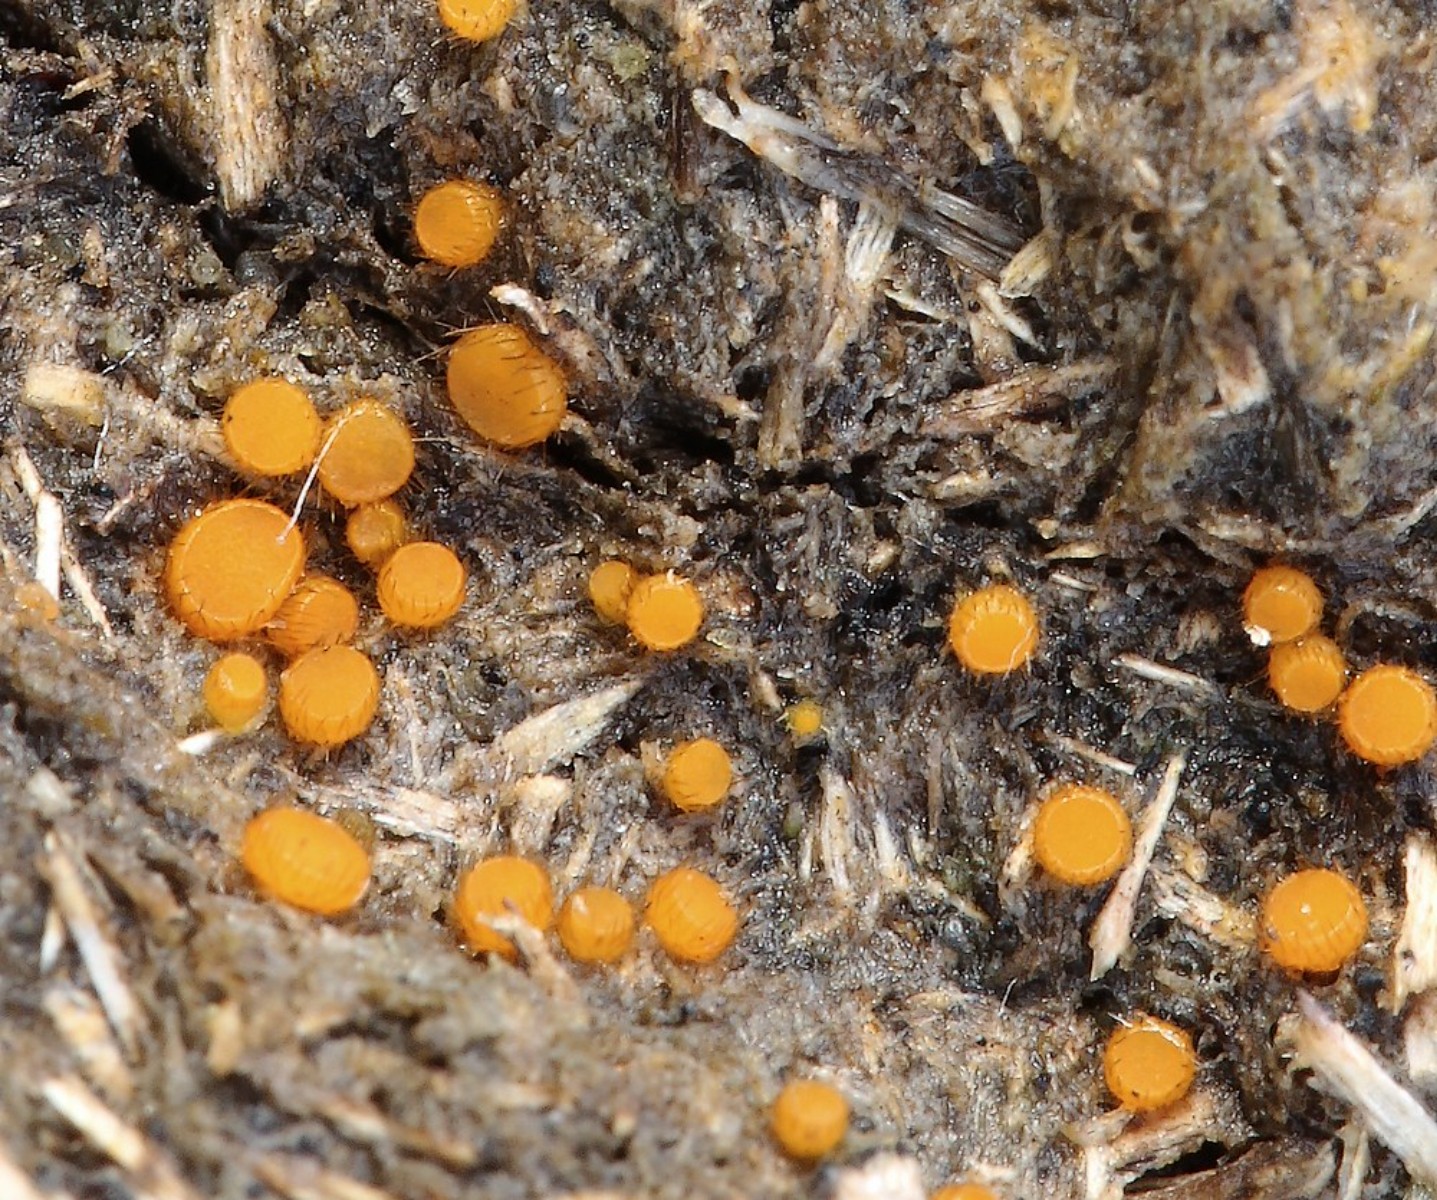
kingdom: Fungi
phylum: Ascomycota
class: Pezizomycetes
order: Pezizales
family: Pyronemataceae
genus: Cheilymenia
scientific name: Cheilymenia
